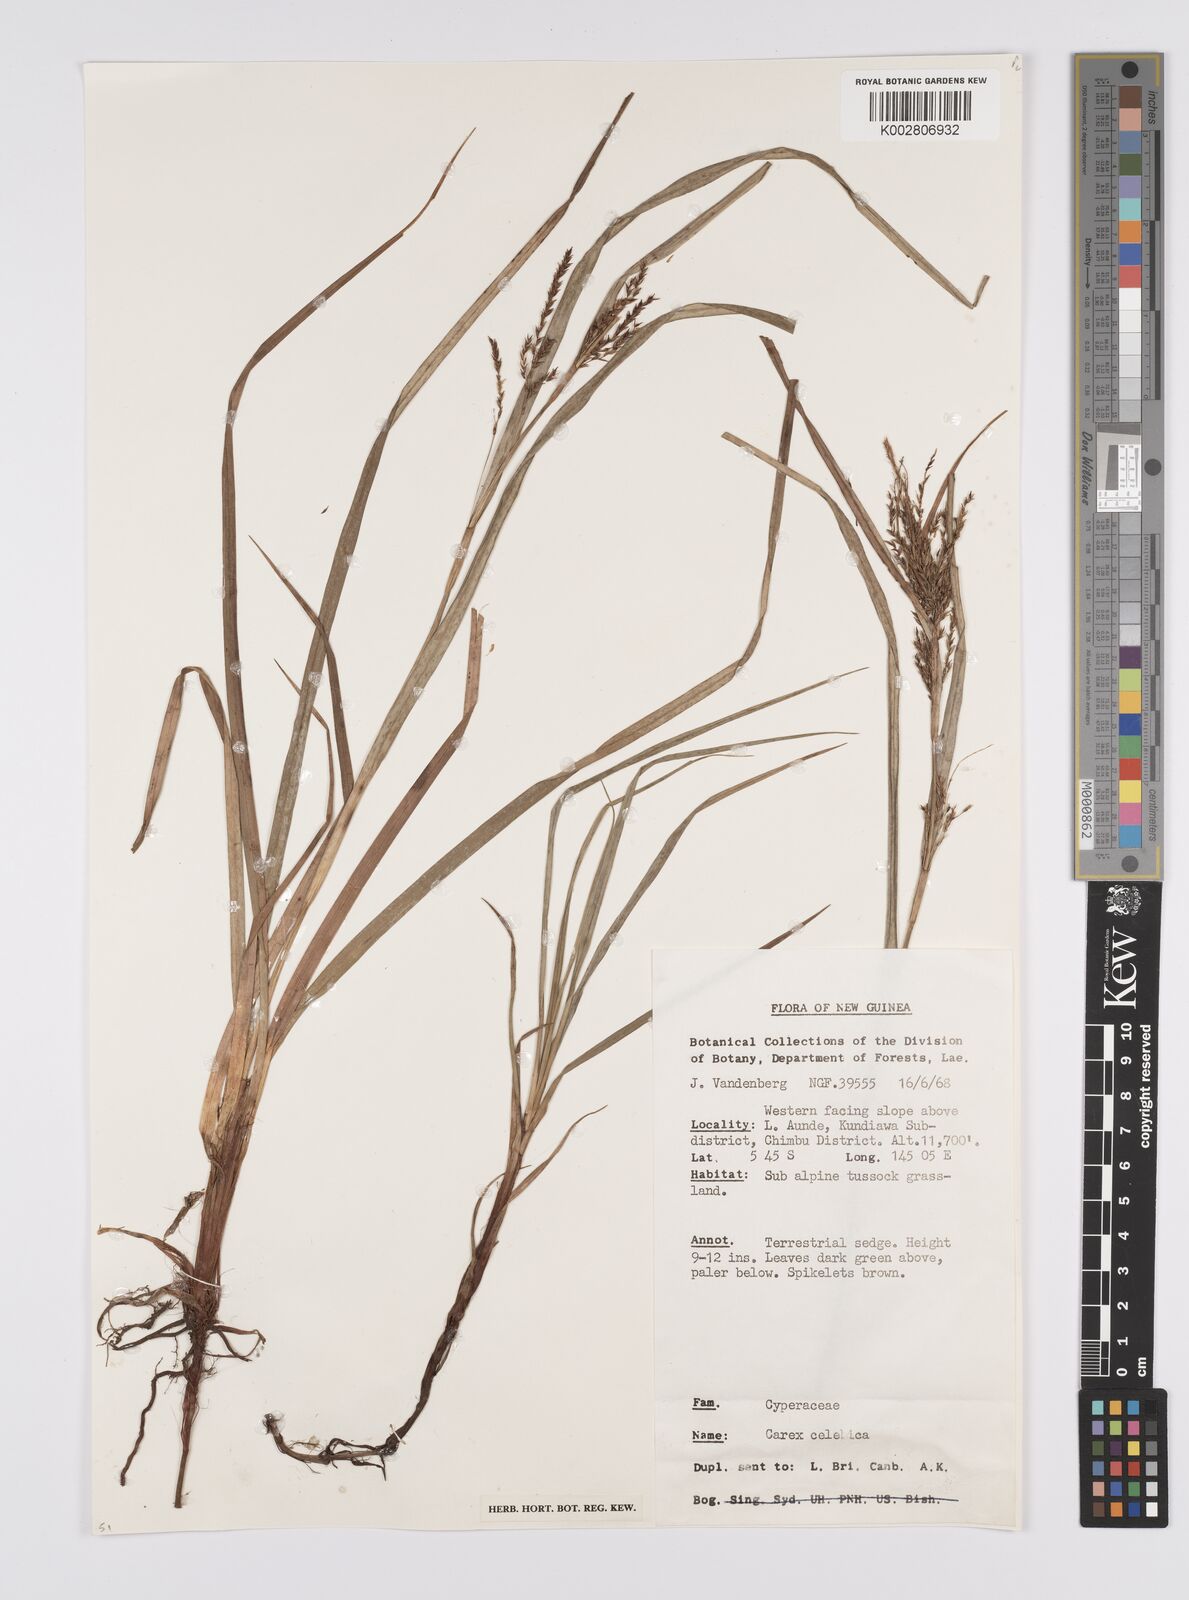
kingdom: Plantae
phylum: Tracheophyta
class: Liliopsida
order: Poales
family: Cyperaceae
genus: Carex
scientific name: Carex celebica
